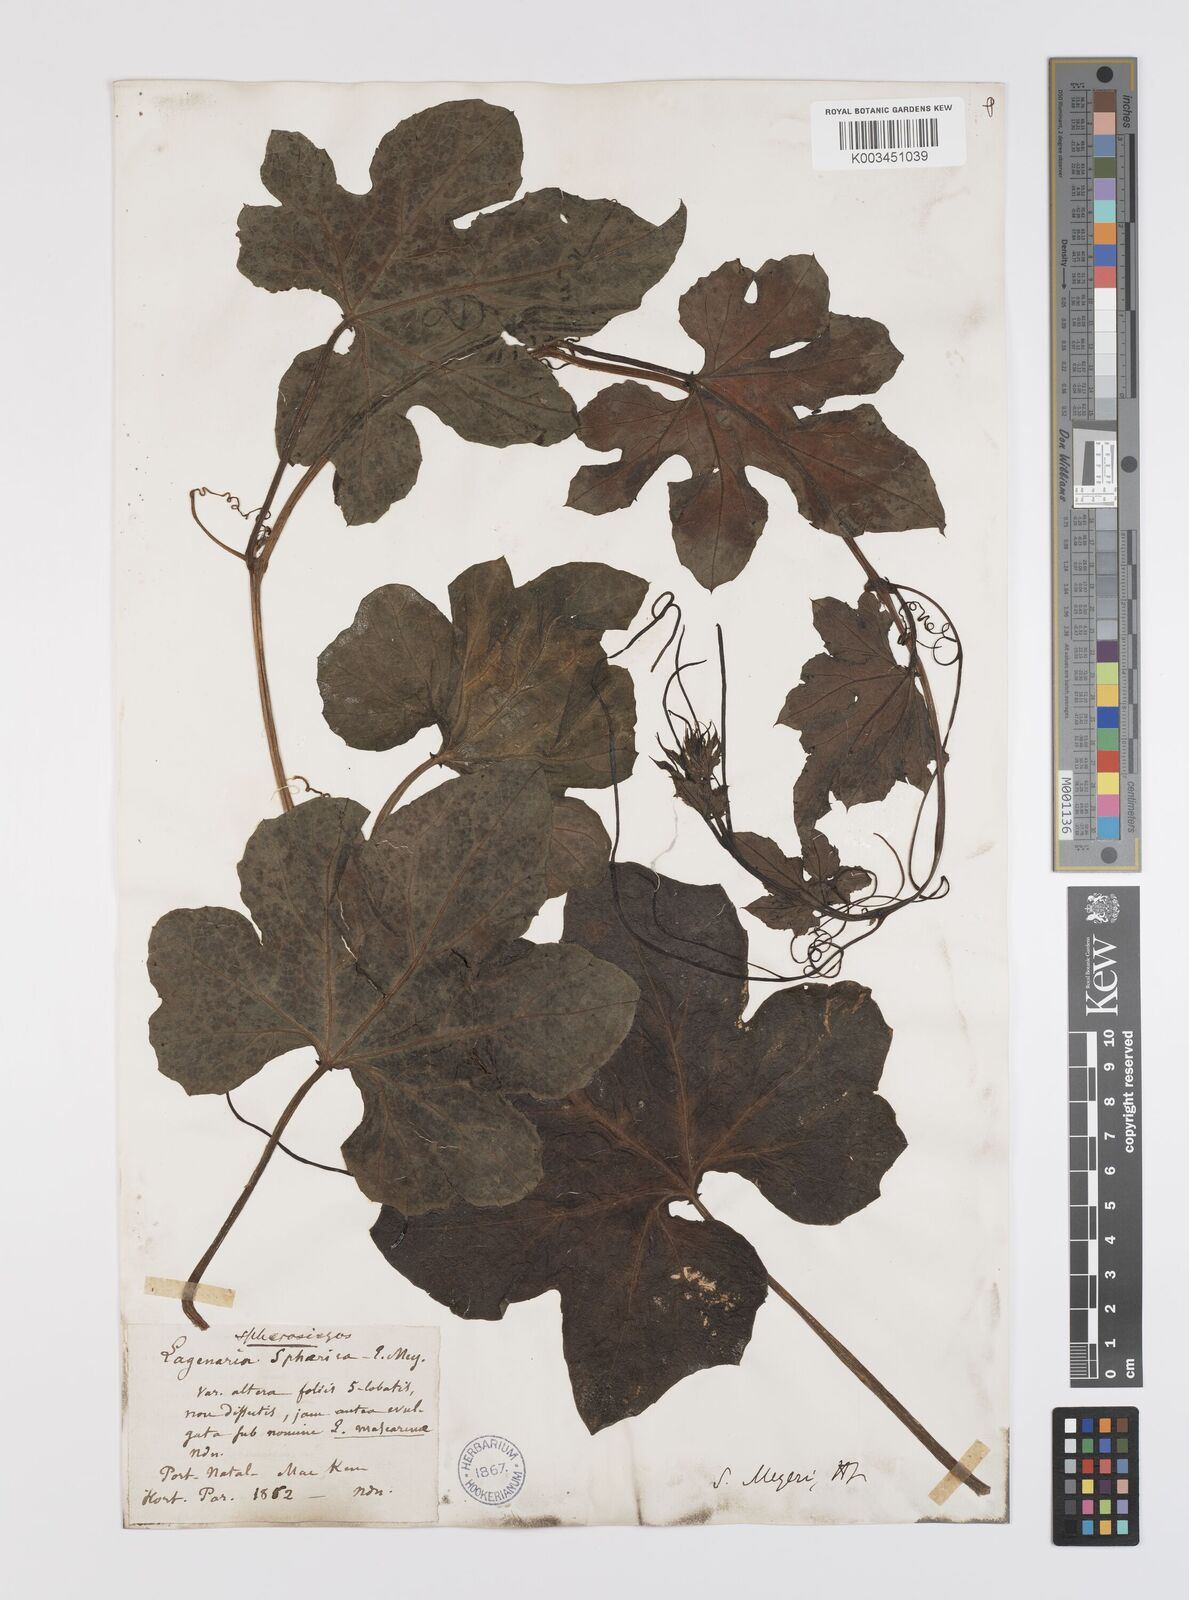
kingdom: Plantae
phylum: Tracheophyta
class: Magnoliopsida
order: Cucurbitales
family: Cucurbitaceae
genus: Lagenaria
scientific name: Lagenaria sphaerica
